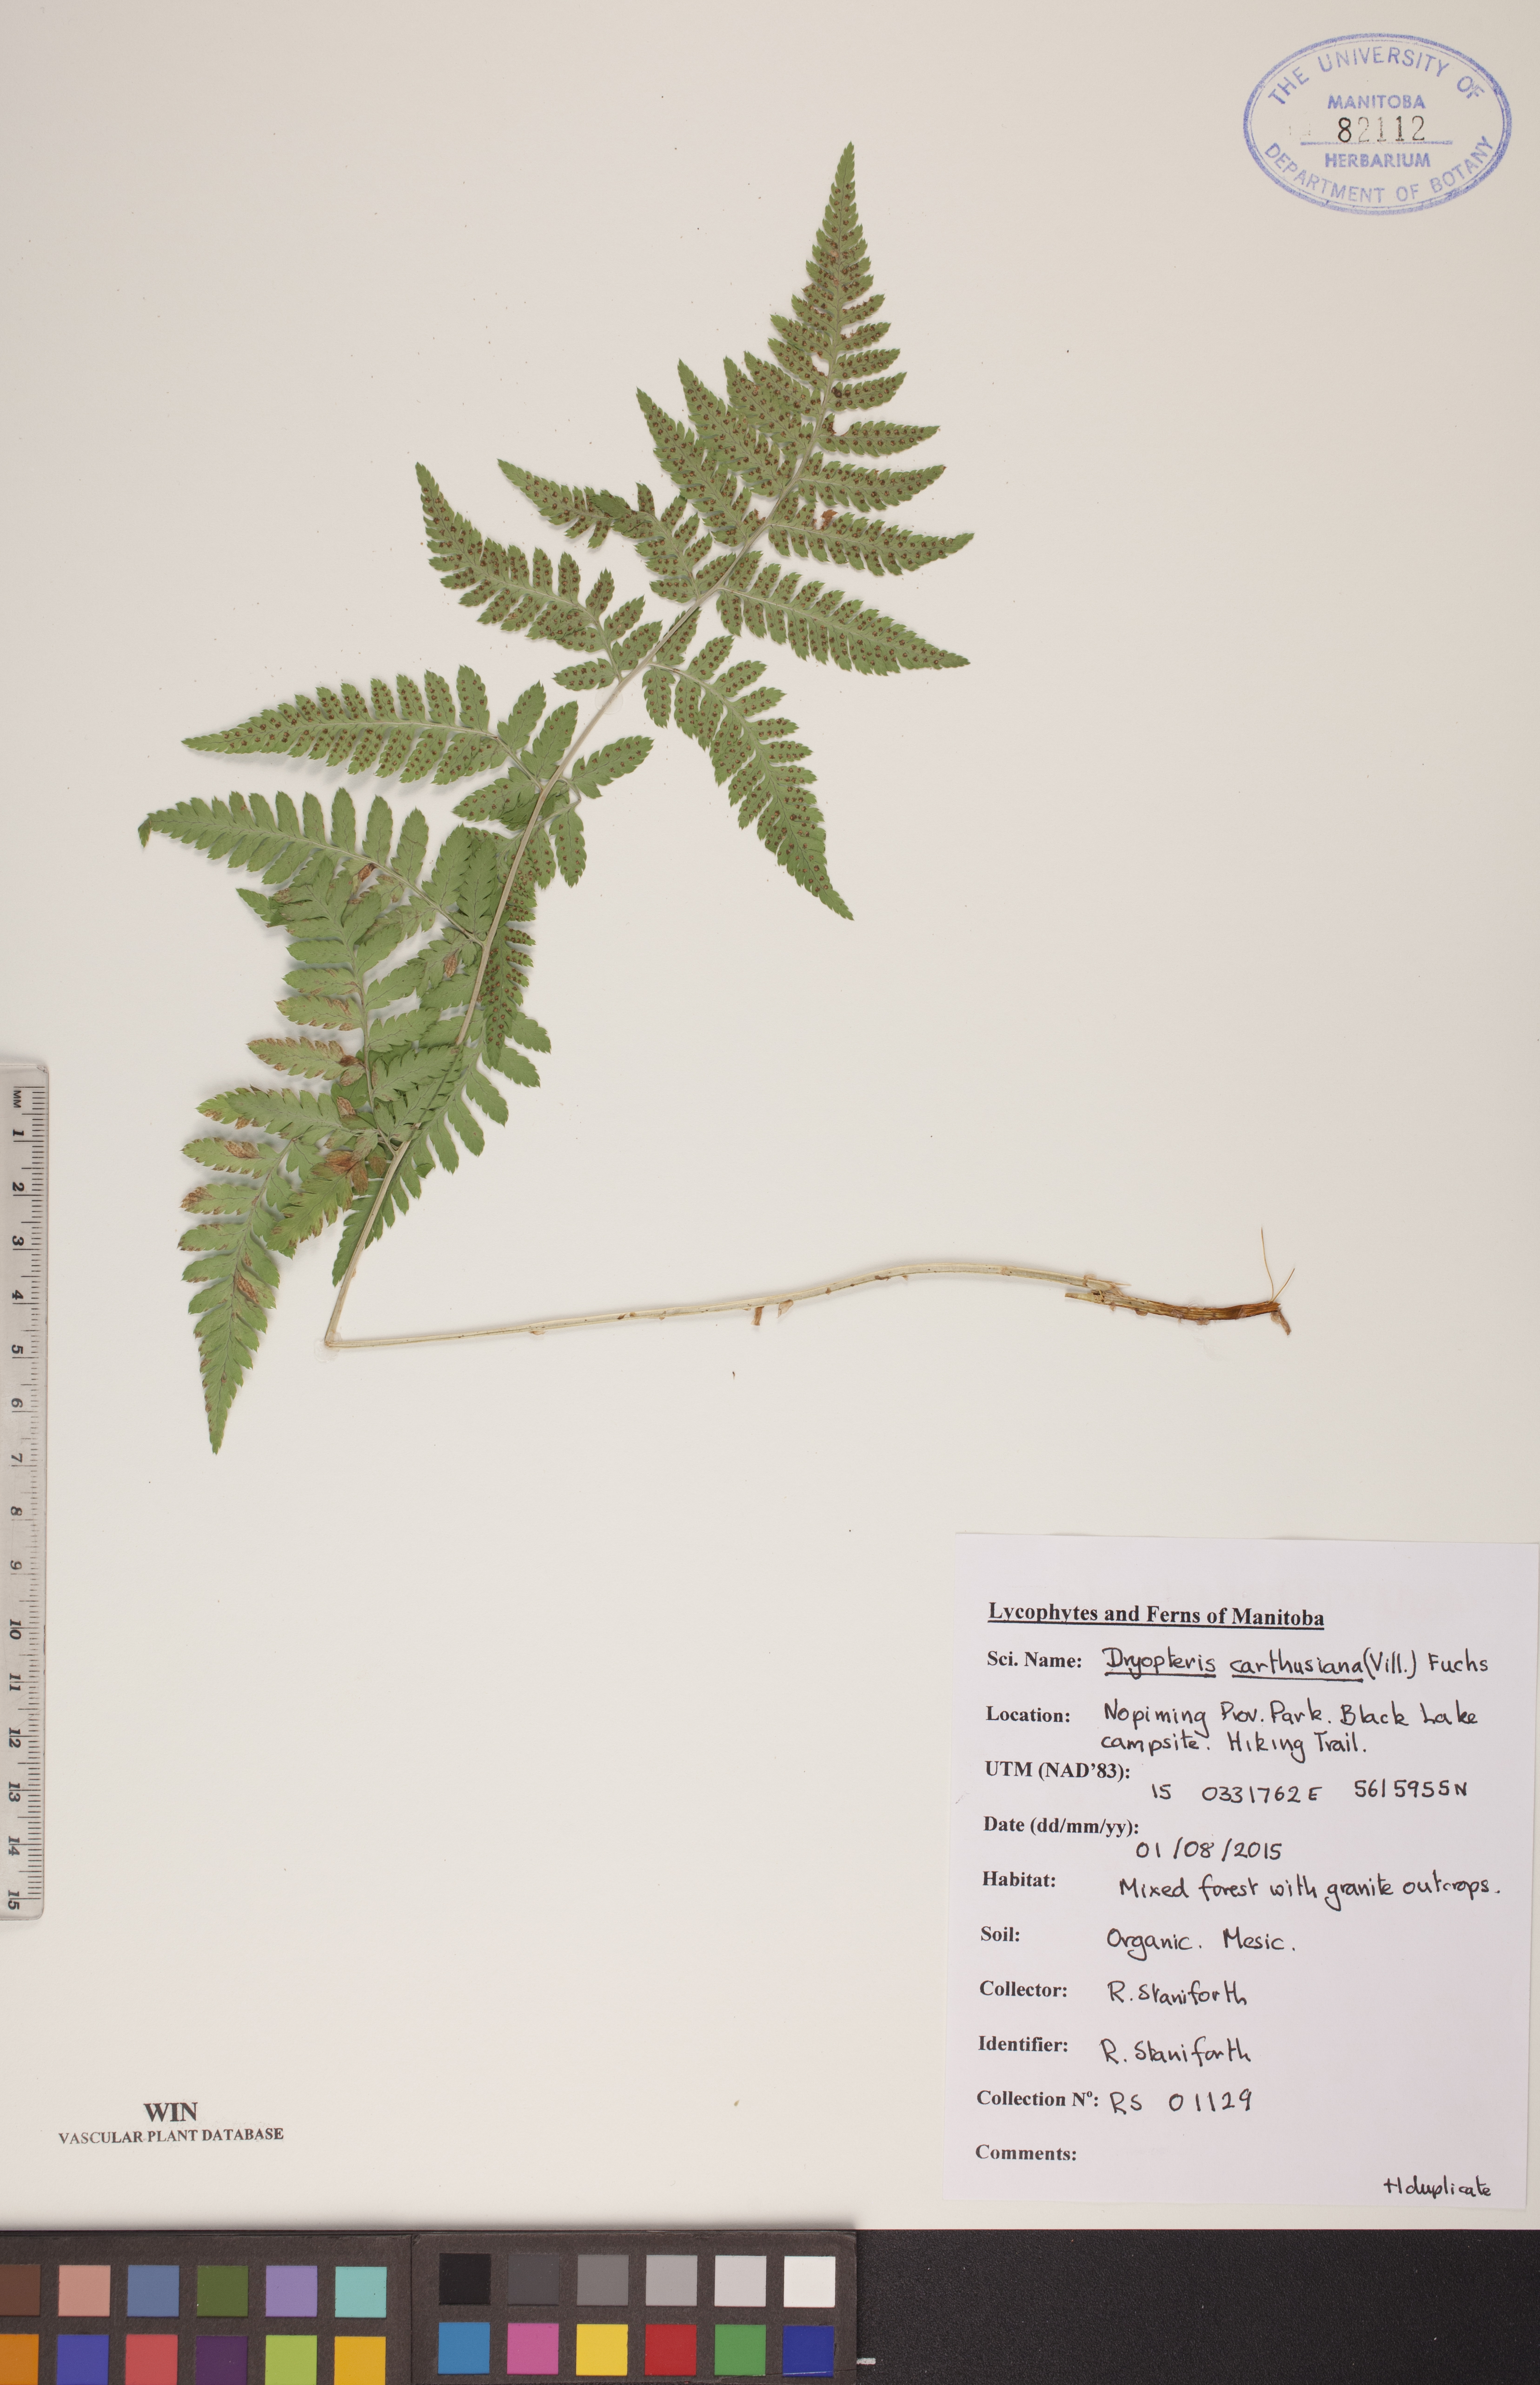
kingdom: Plantae
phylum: Tracheophyta
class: Polypodiopsida
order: Polypodiales
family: Dryopteridaceae
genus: Dryopteris
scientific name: Dryopteris carthusiana
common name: Narrow buckler-fern
